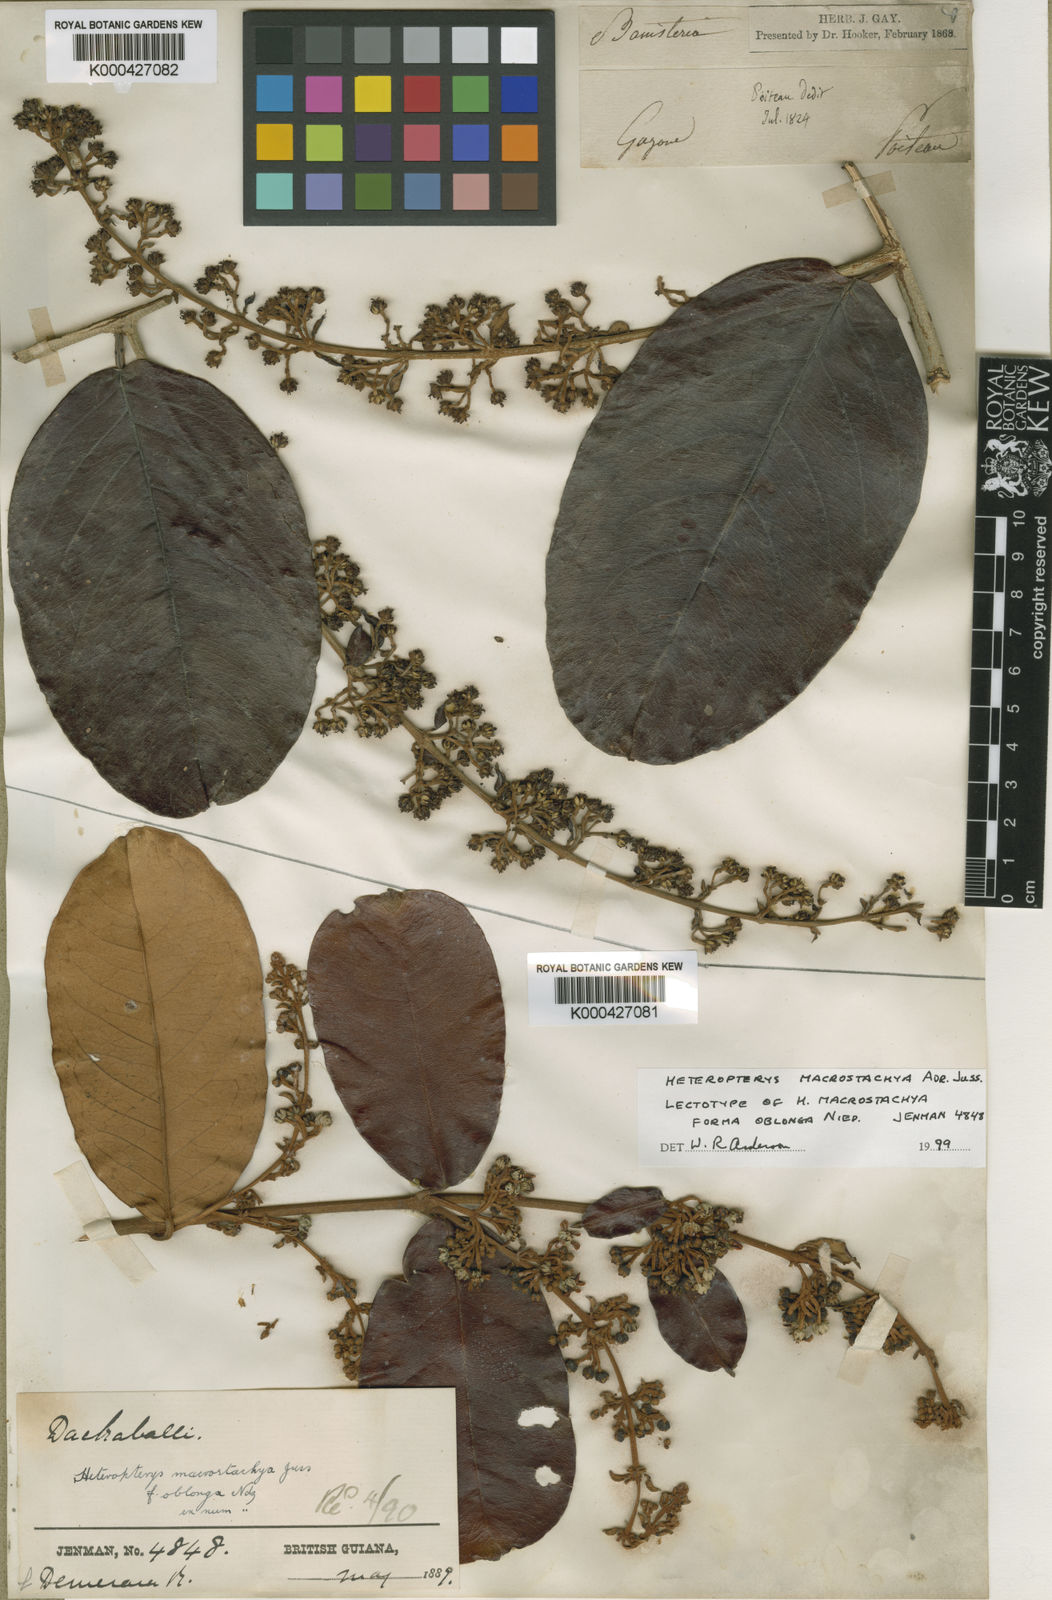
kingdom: Plantae
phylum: Tracheophyta
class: Magnoliopsida
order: Malpighiales
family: Malpighiaceae
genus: Heteropterys
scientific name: Heteropterys macrostachya
